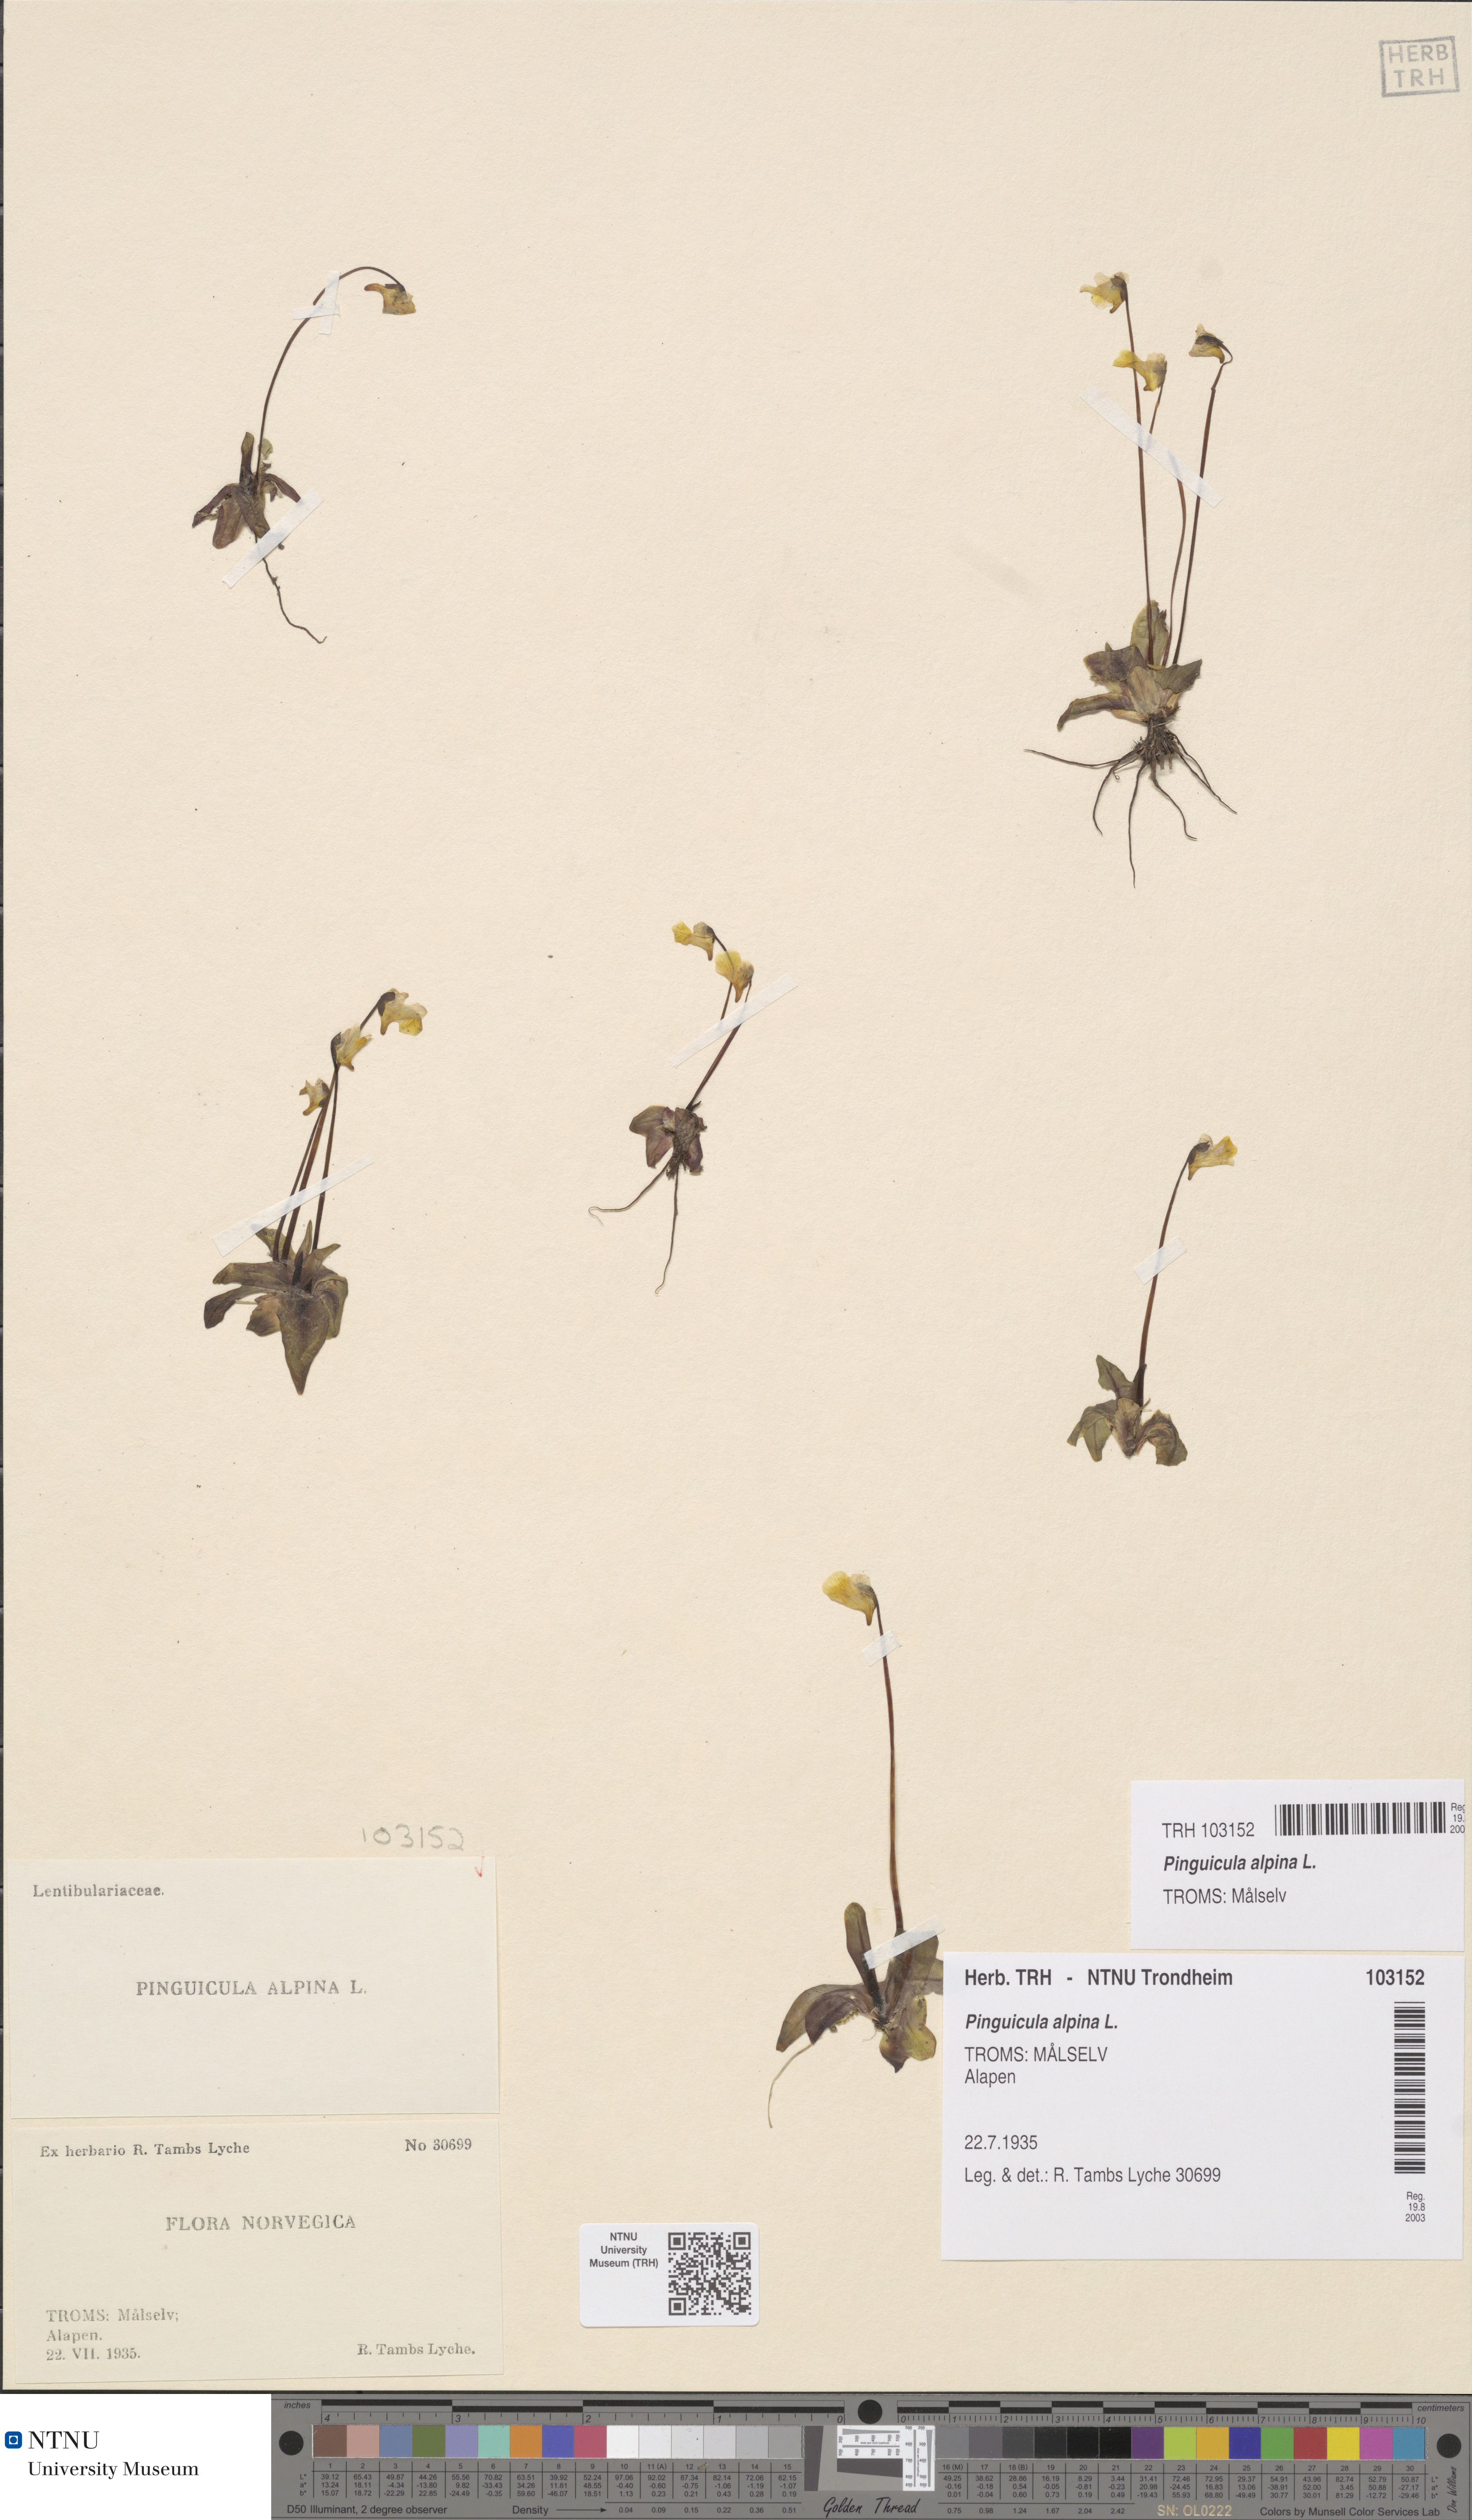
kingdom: Plantae
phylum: Tracheophyta
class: Magnoliopsida
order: Lamiales
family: Lentibulariaceae
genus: Pinguicula
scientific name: Pinguicula alpina
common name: Alpine butterwort
